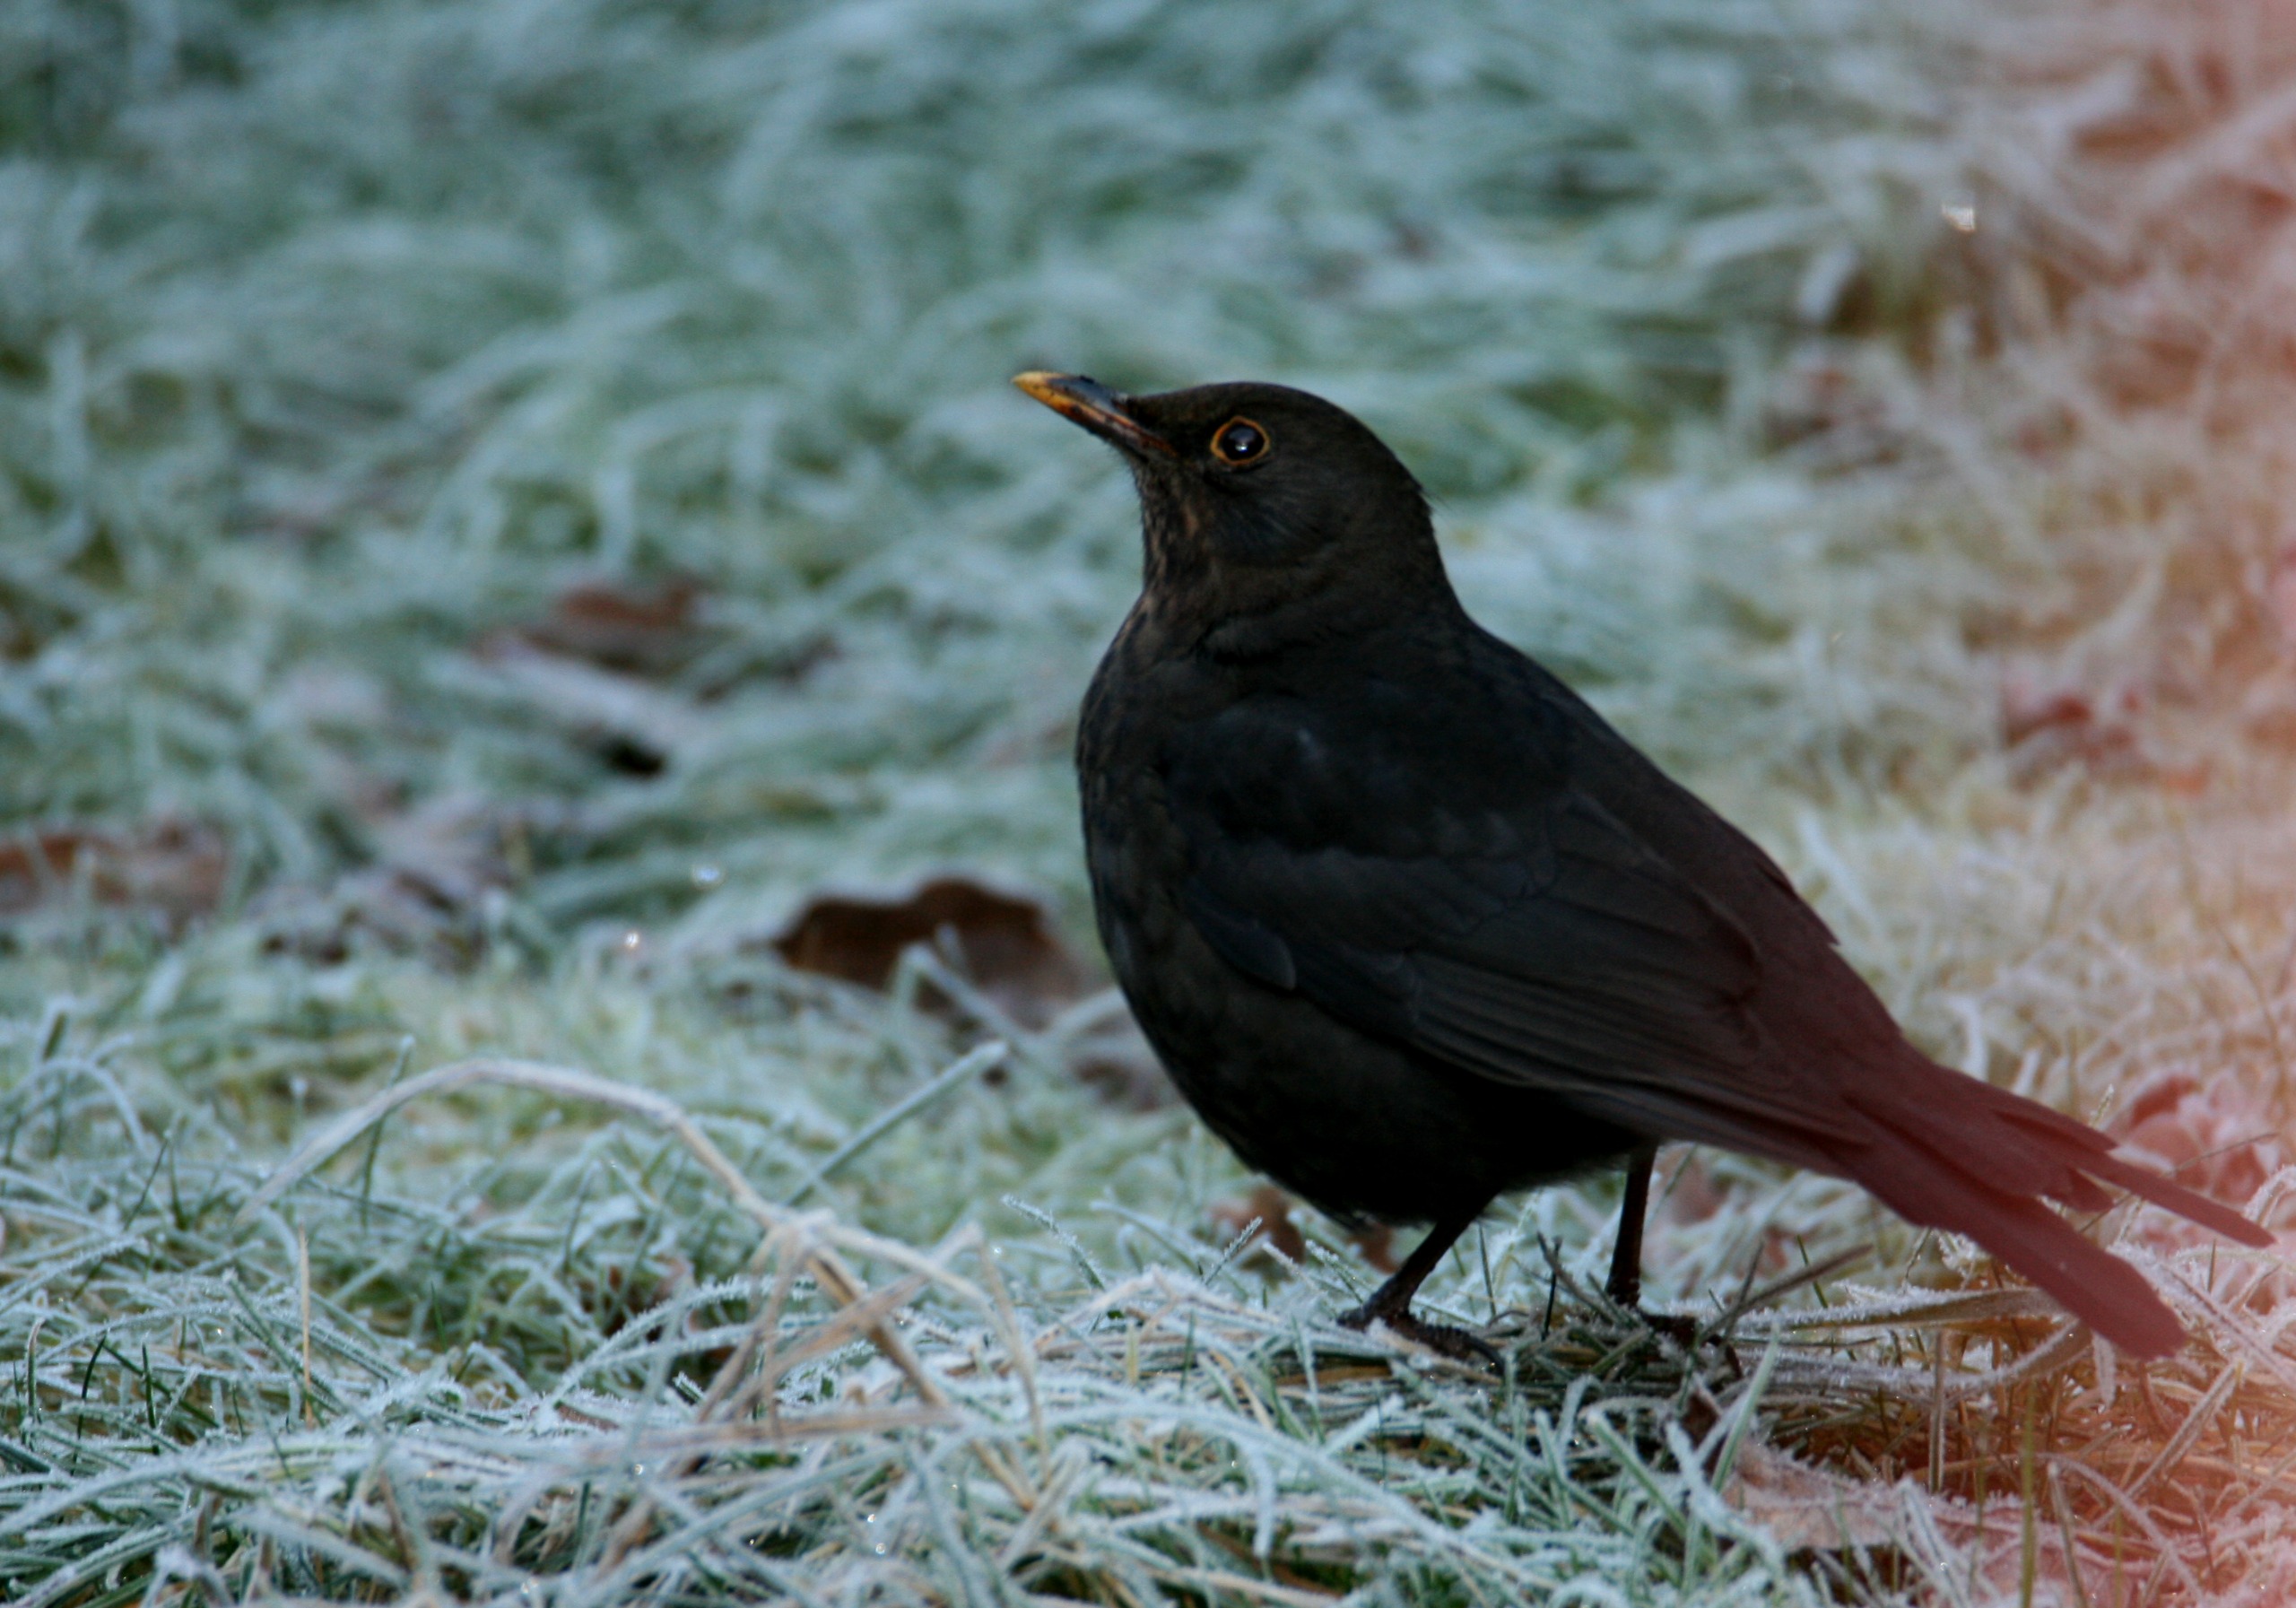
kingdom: Animalia
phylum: Chordata
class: Aves
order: Passeriformes
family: Turdidae
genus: Turdus
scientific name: Turdus merula
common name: Solsort
